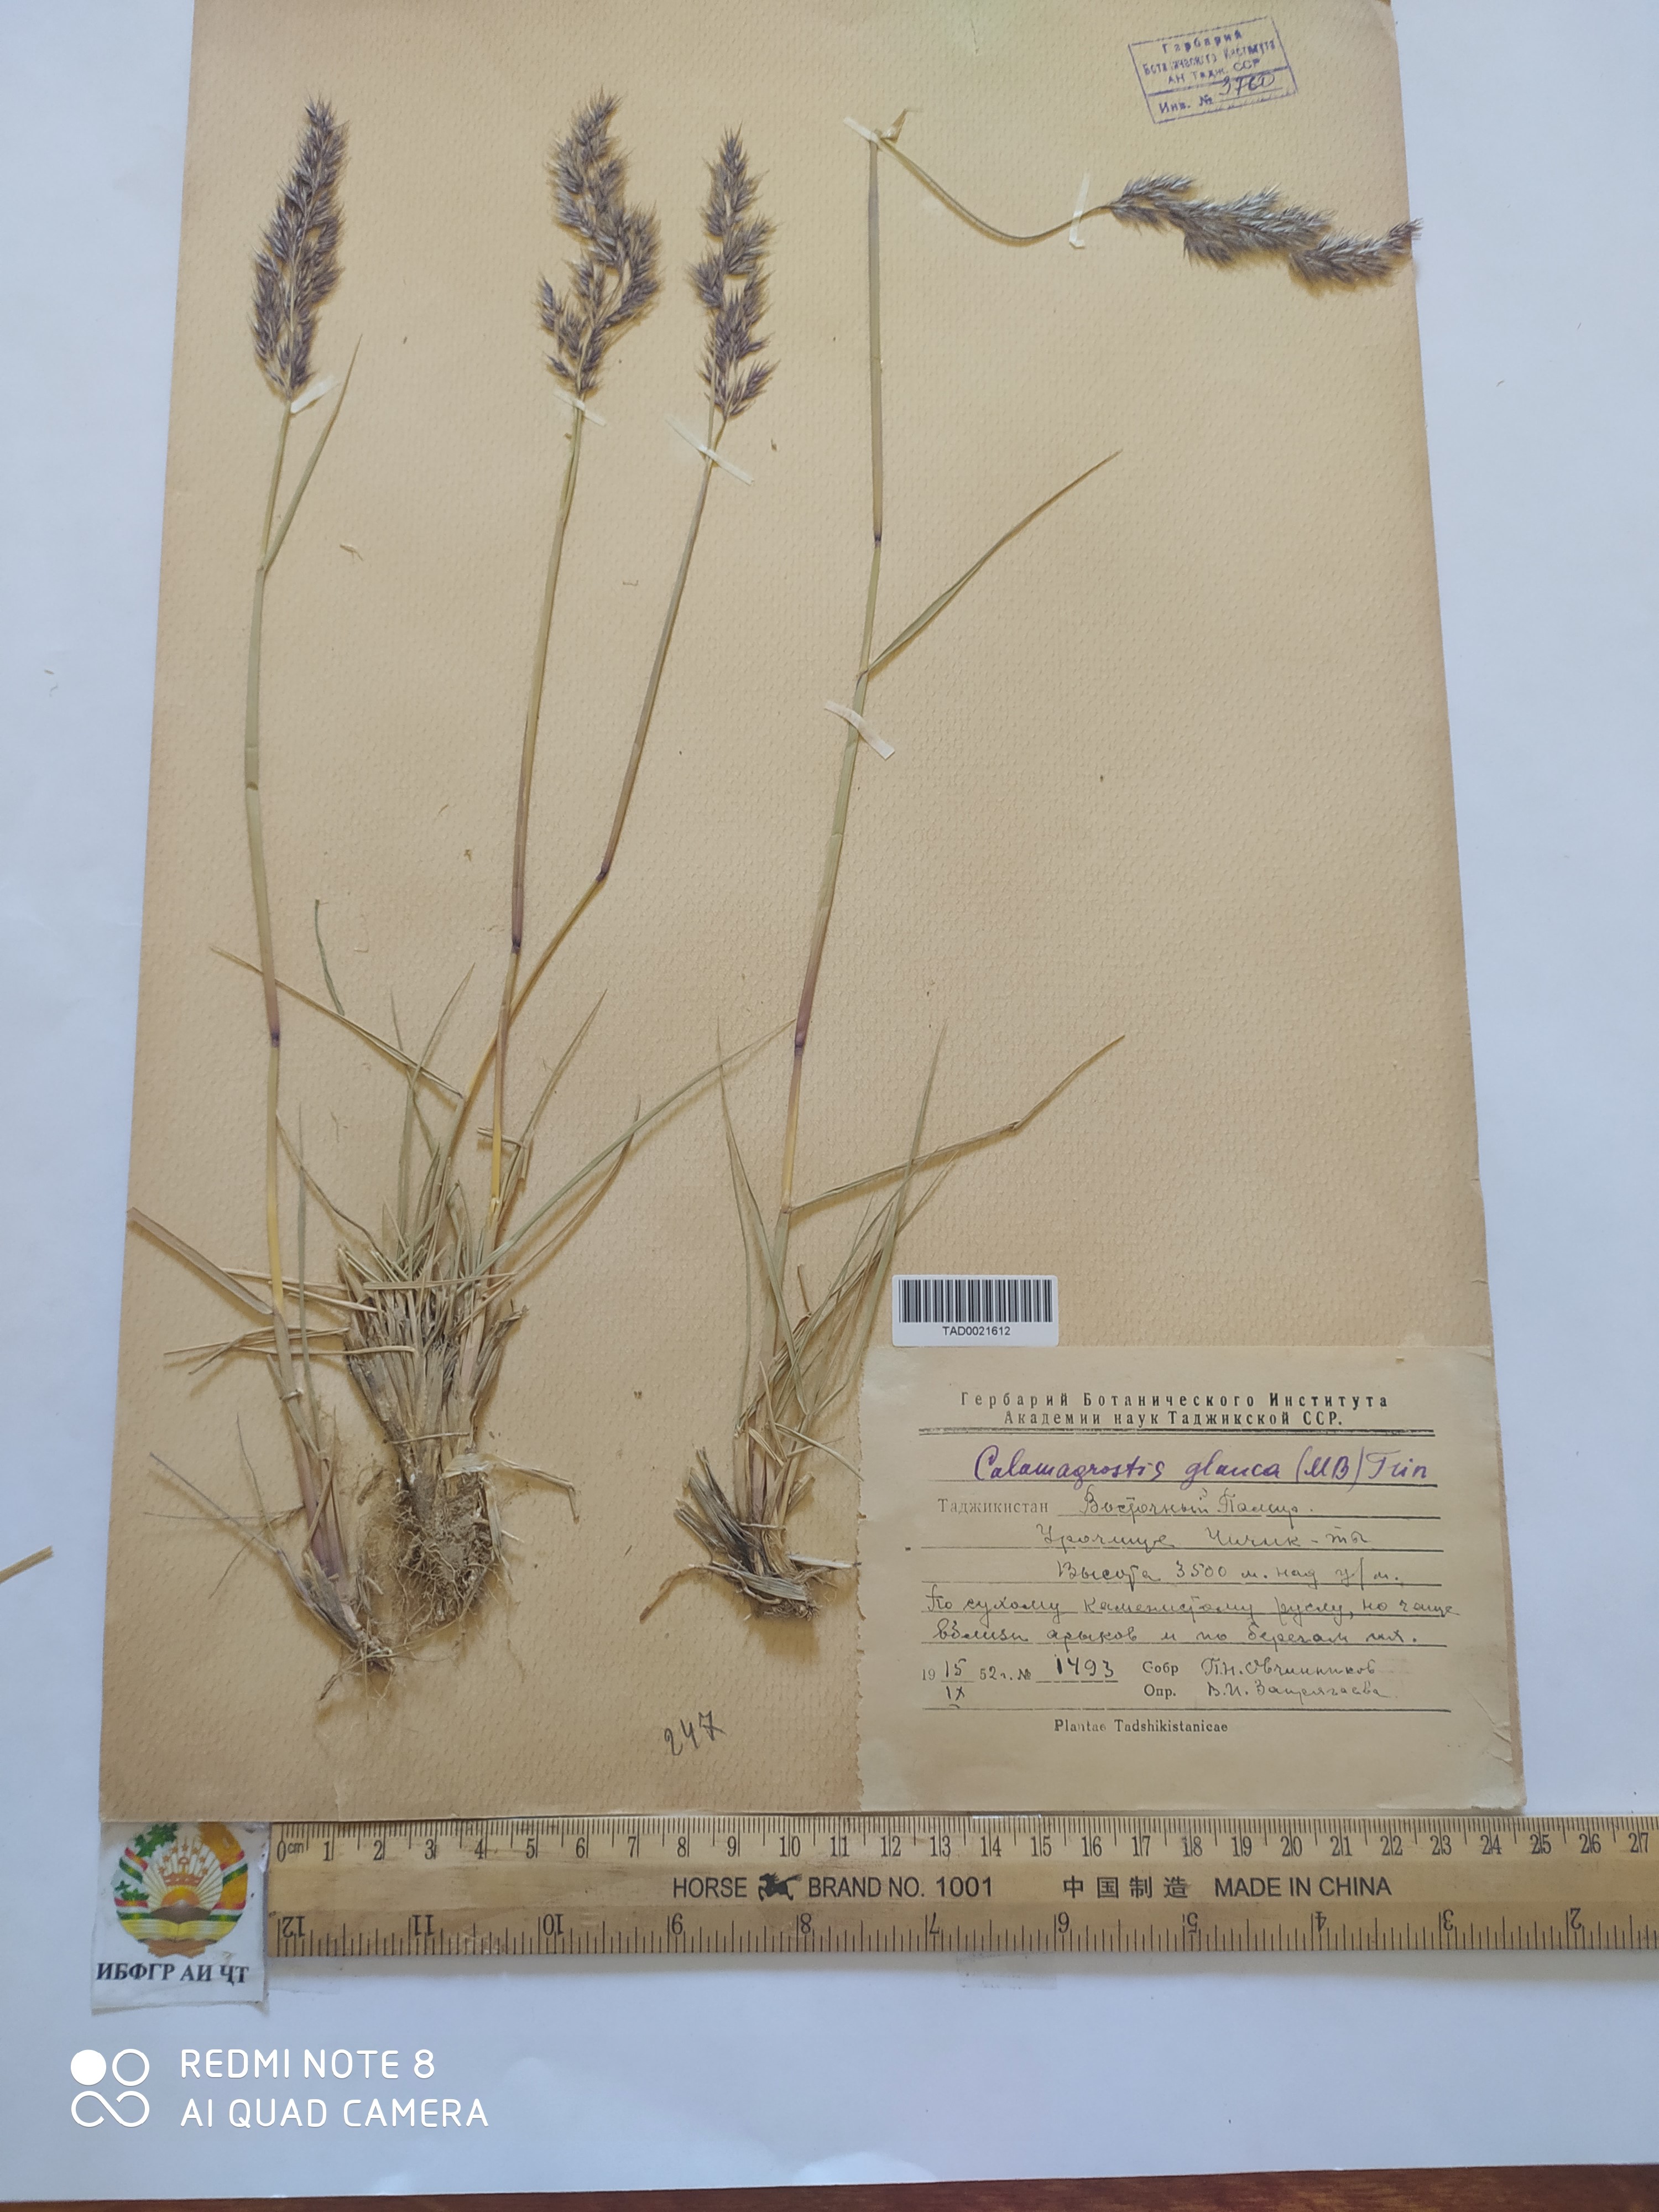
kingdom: Plantae
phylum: Tracheophyta
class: Liliopsida
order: Poales
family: Poaceae
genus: Calamagrostis
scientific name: Calamagrostis pseudophragmites
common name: Coastal small-reed
